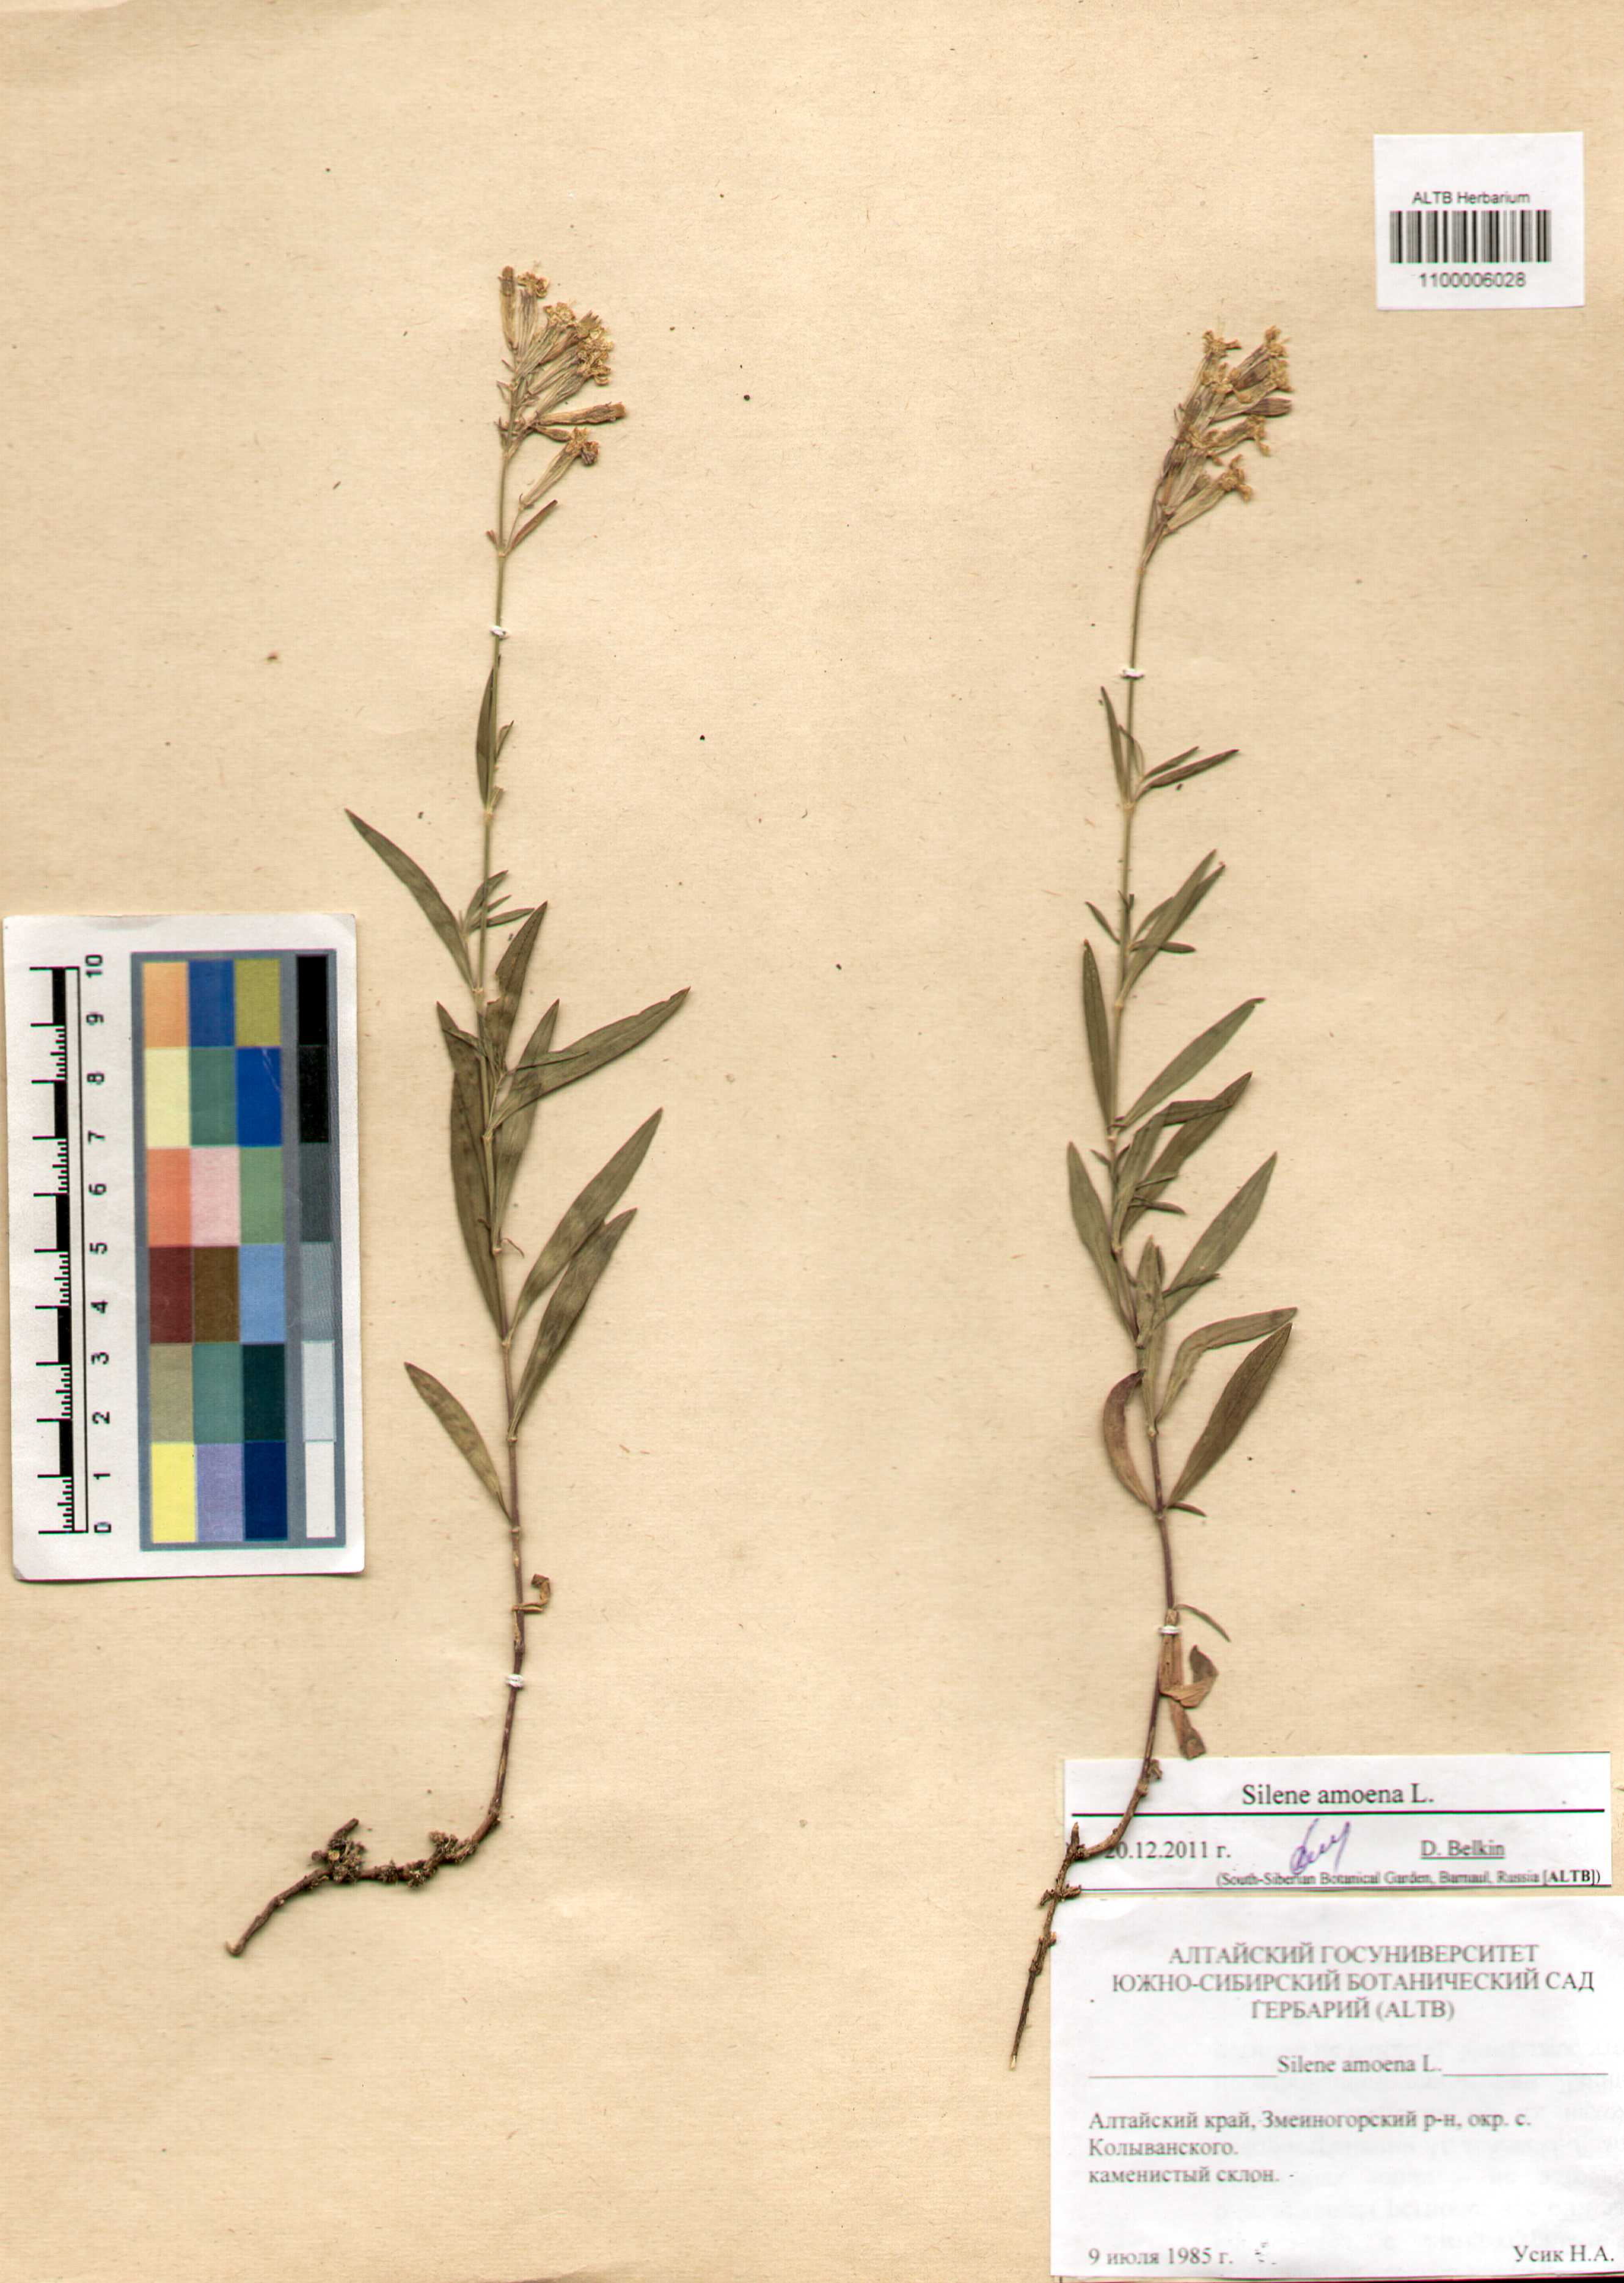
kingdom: Plantae
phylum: Tracheophyta
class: Magnoliopsida
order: Caryophyllales
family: Caryophyllaceae
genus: Silene
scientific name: Silene amoena
